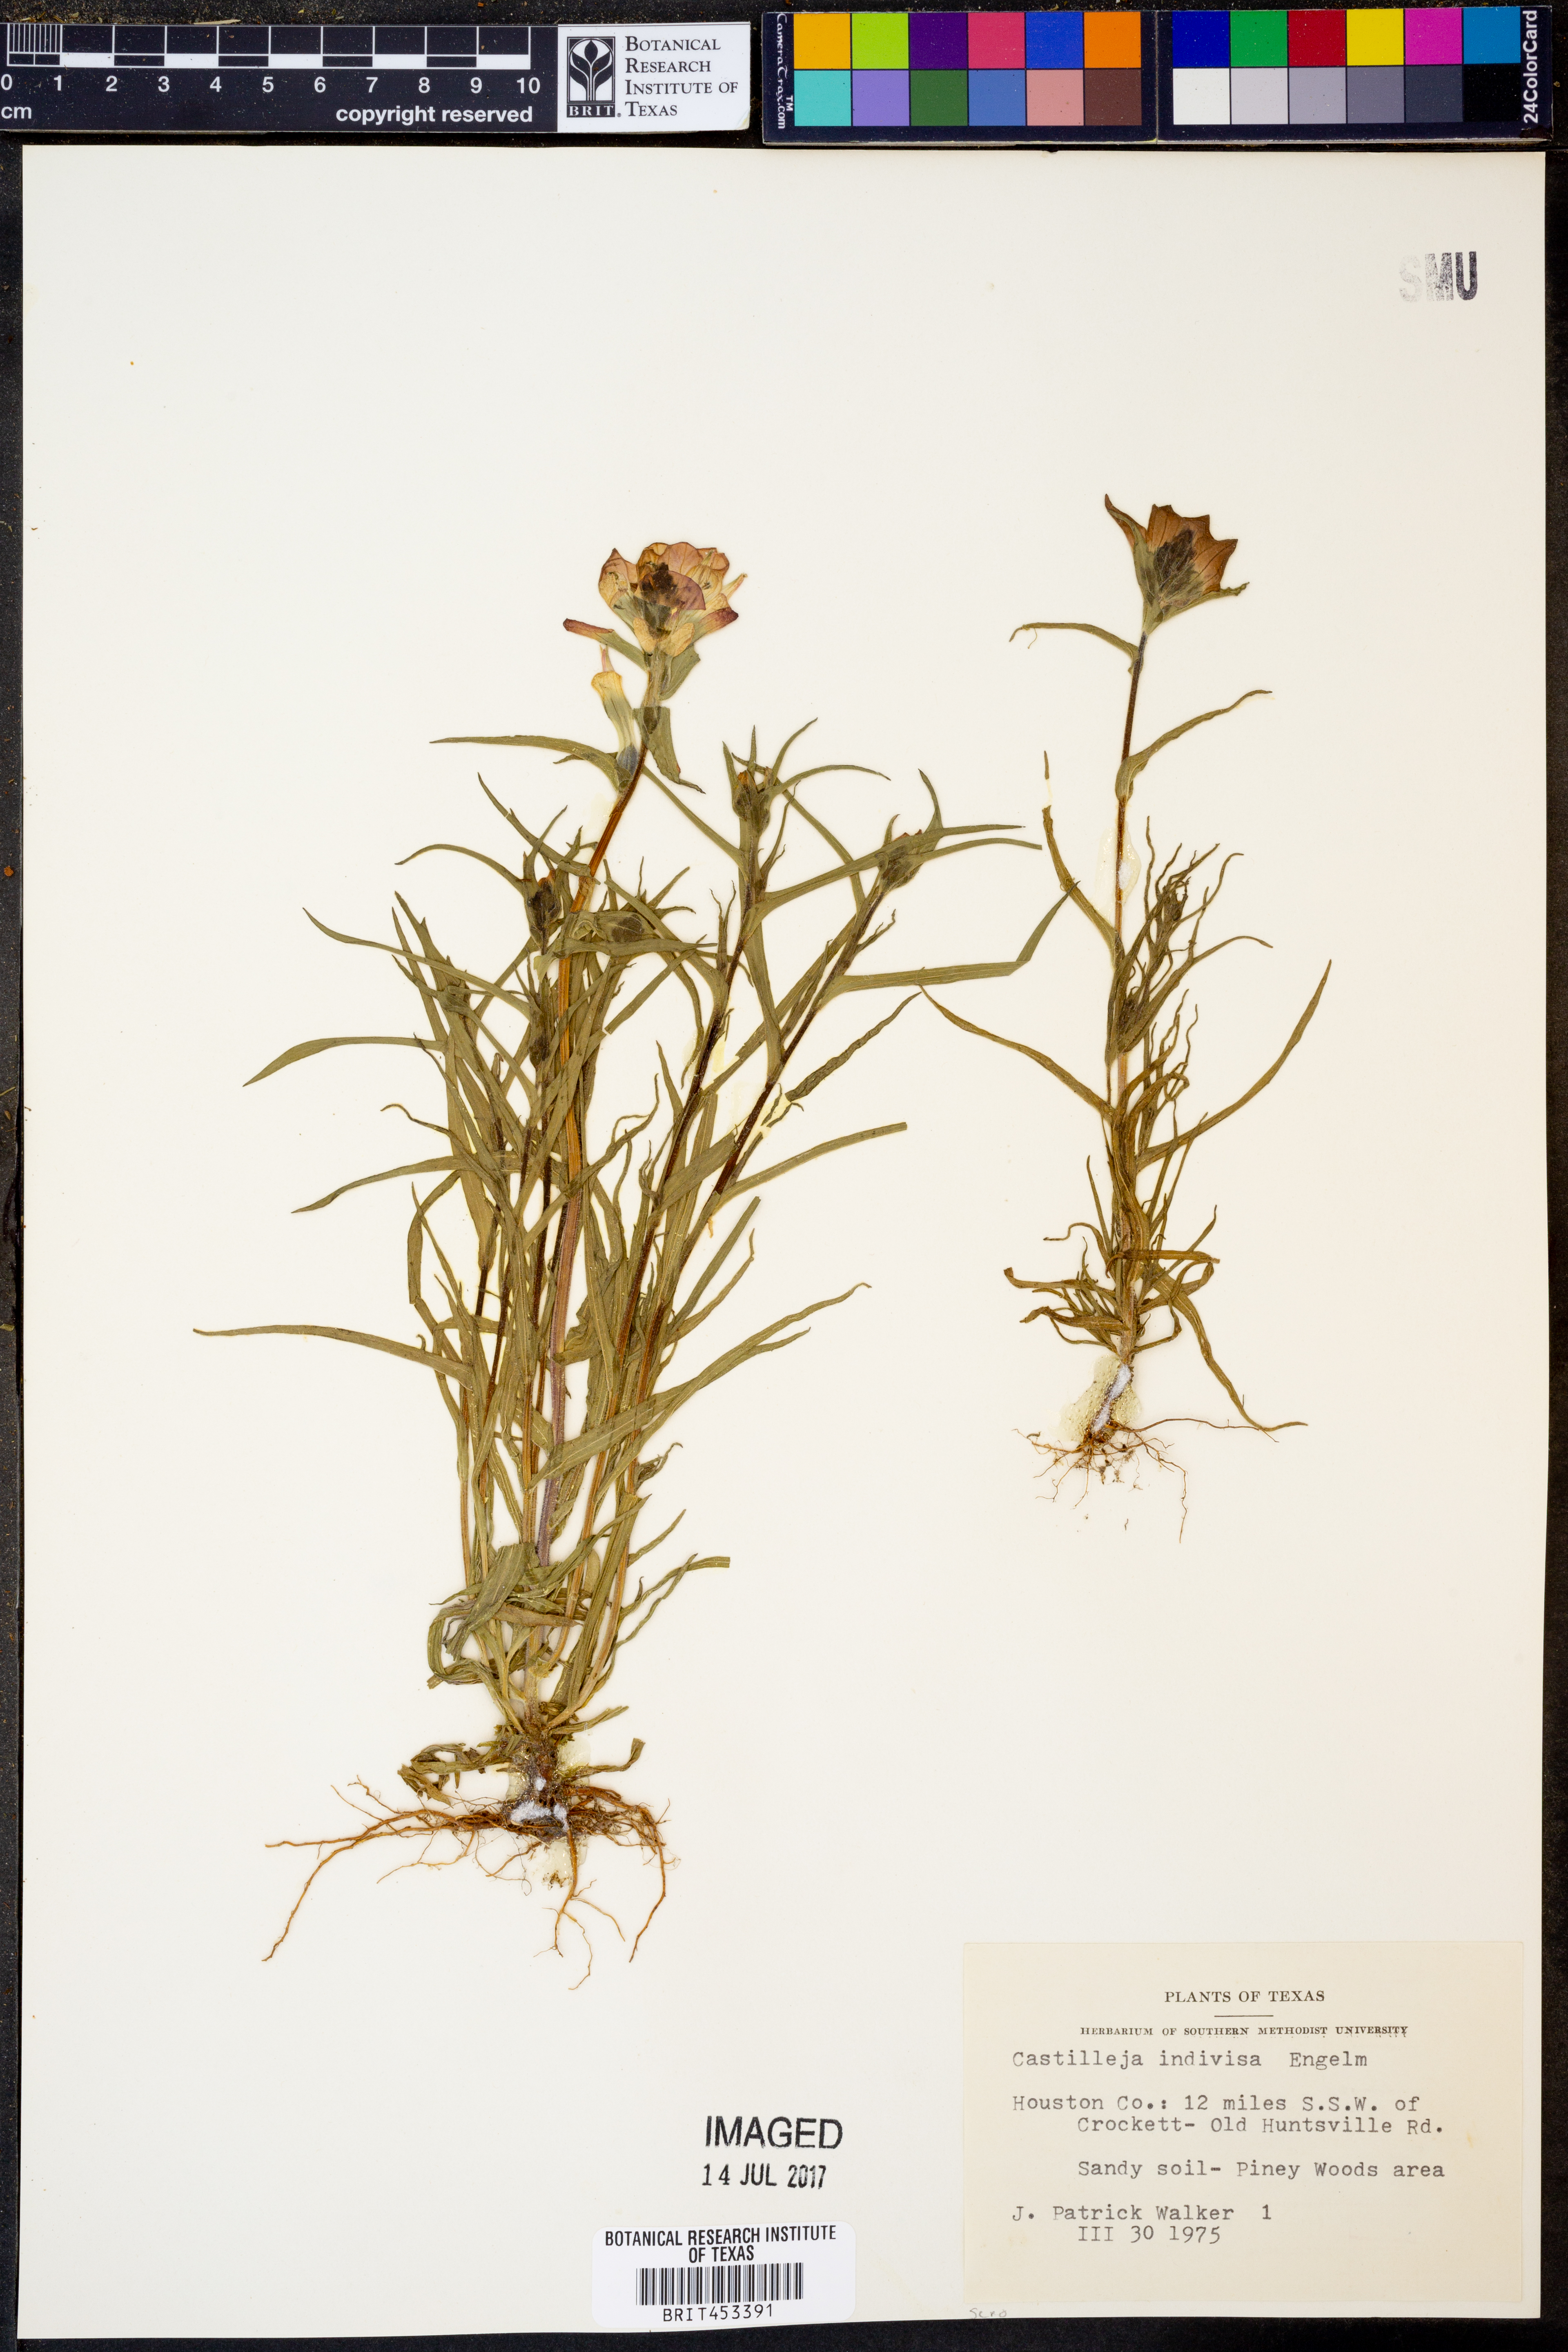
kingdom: Plantae
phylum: Tracheophyta
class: Magnoliopsida
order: Lamiales
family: Orobanchaceae
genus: Castilleja
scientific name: Castilleja indivisa
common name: Texas paintbrush
